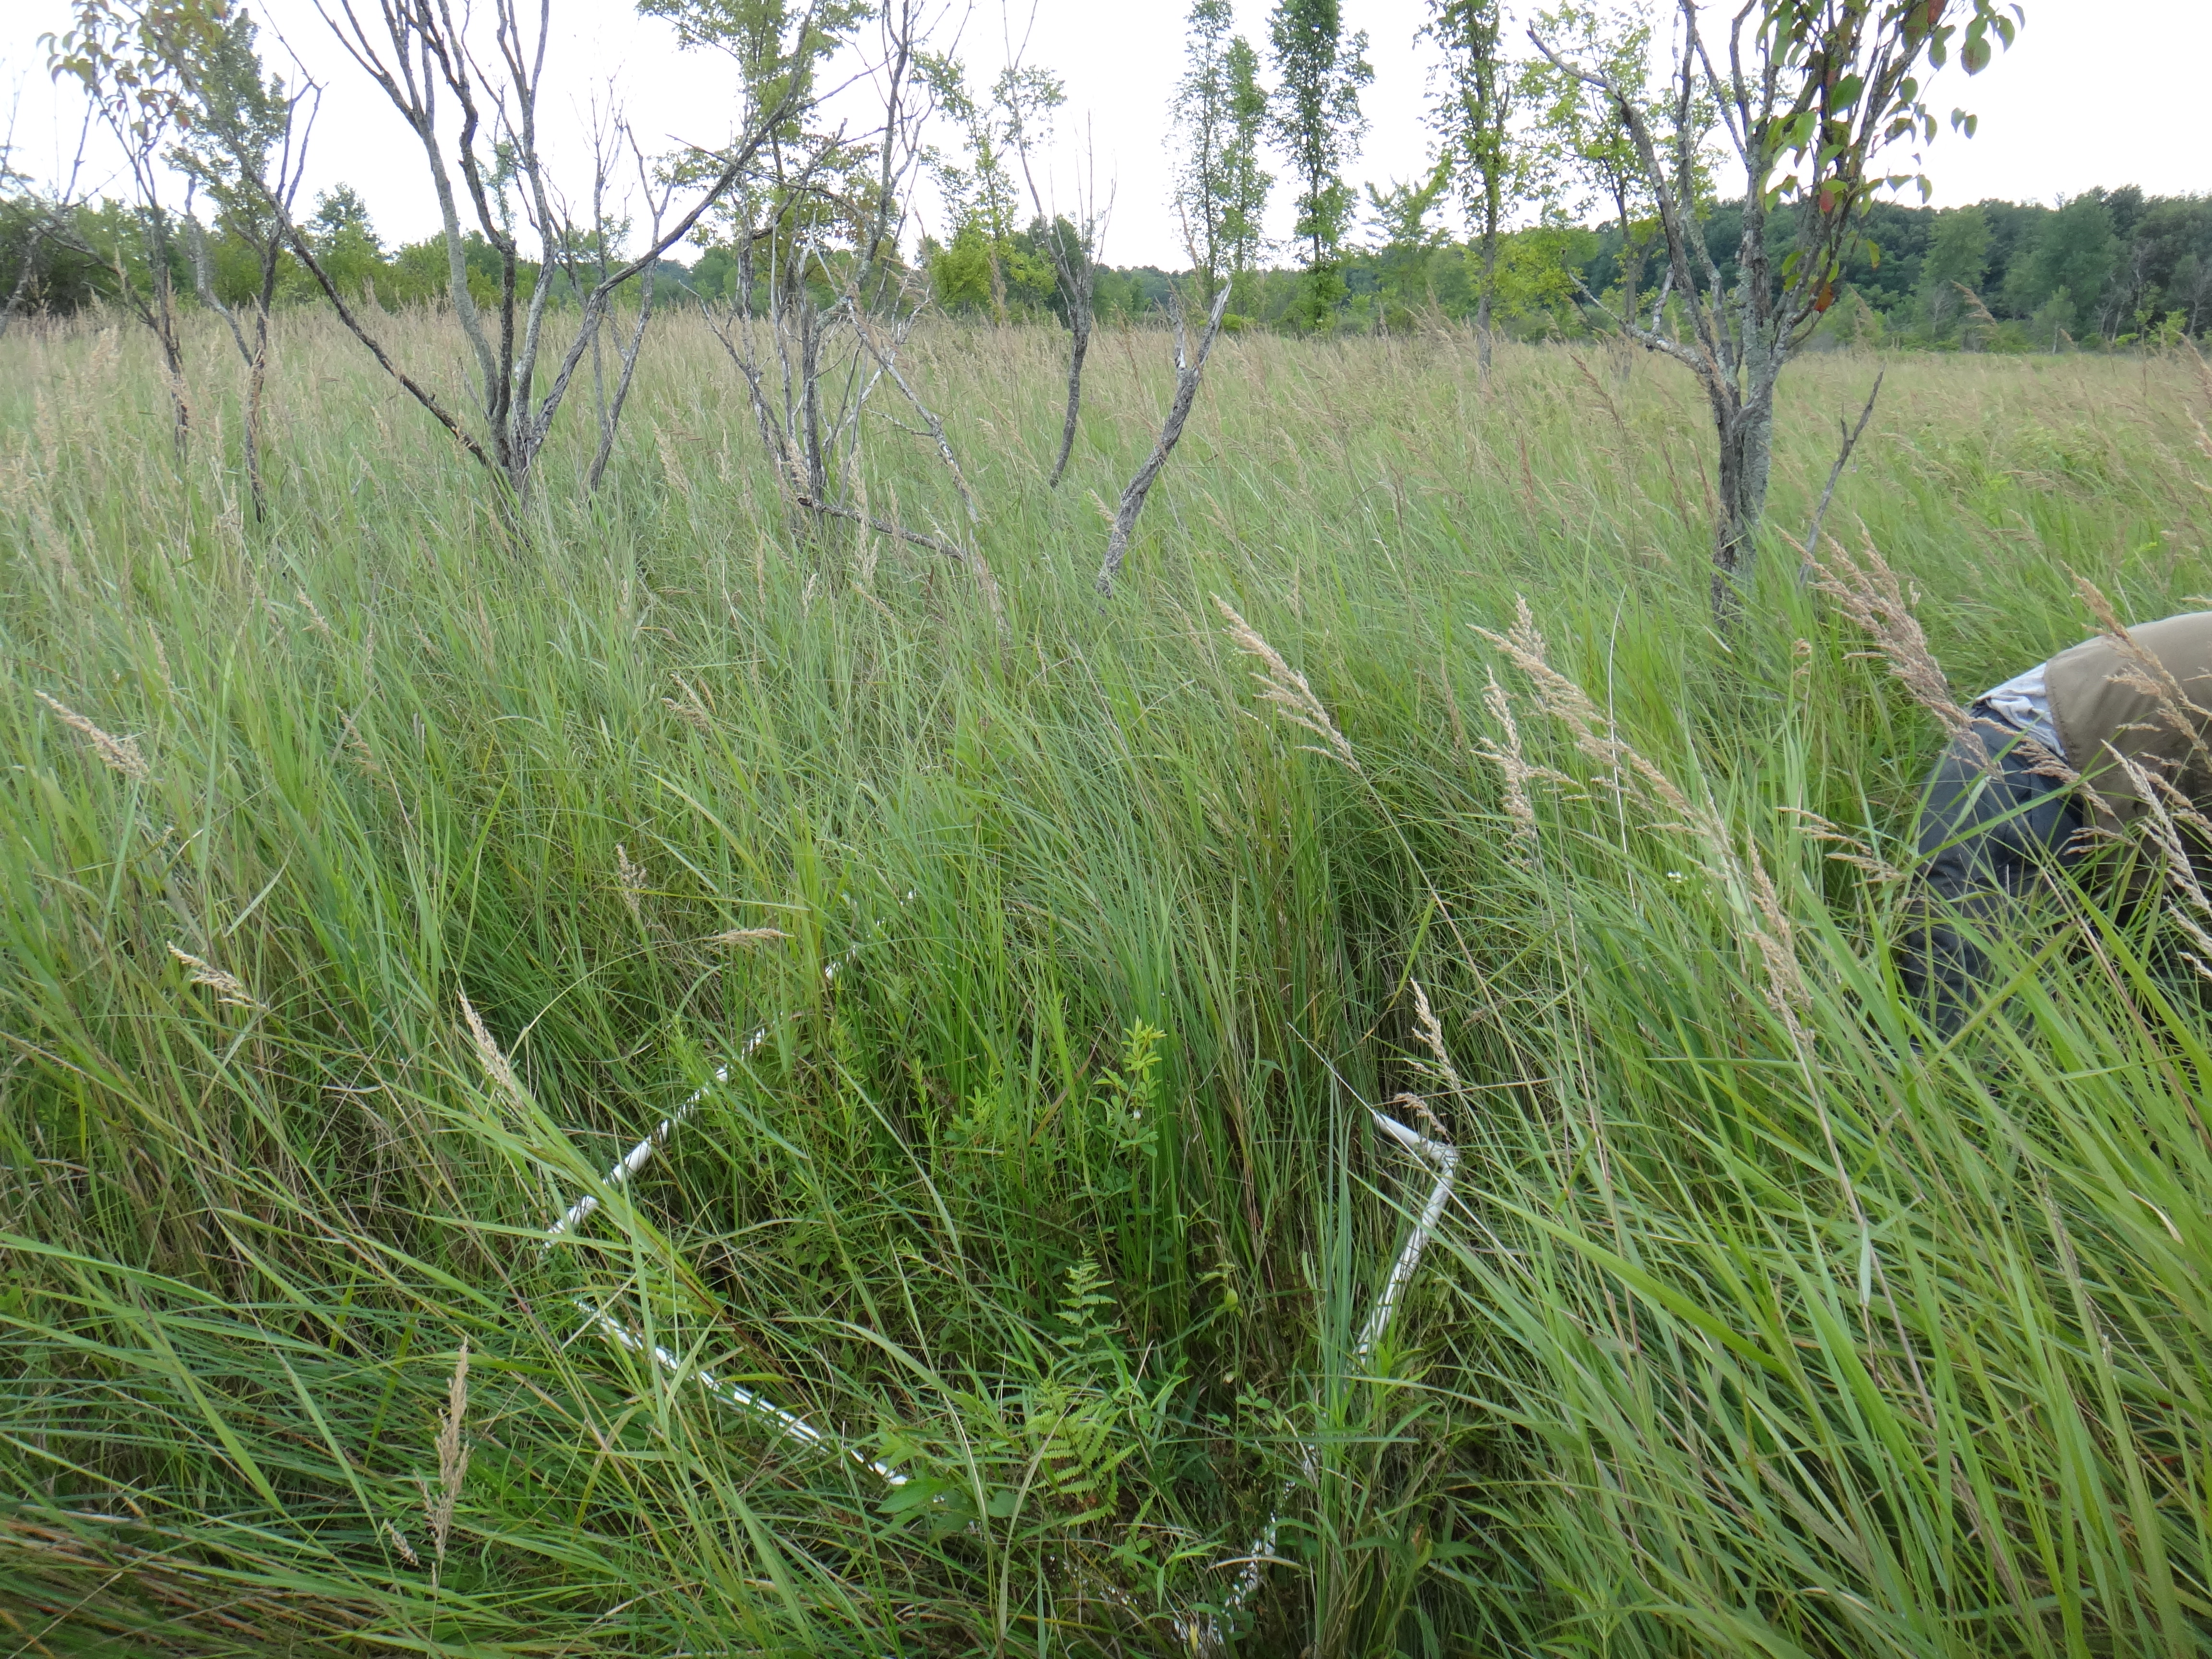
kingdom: Plantae
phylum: Tracheophyta
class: Polypodiopsida
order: Polypodiales
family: Thelypteridaceae
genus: Thelypteris
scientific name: Thelypteris palustris
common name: Marsh fern
